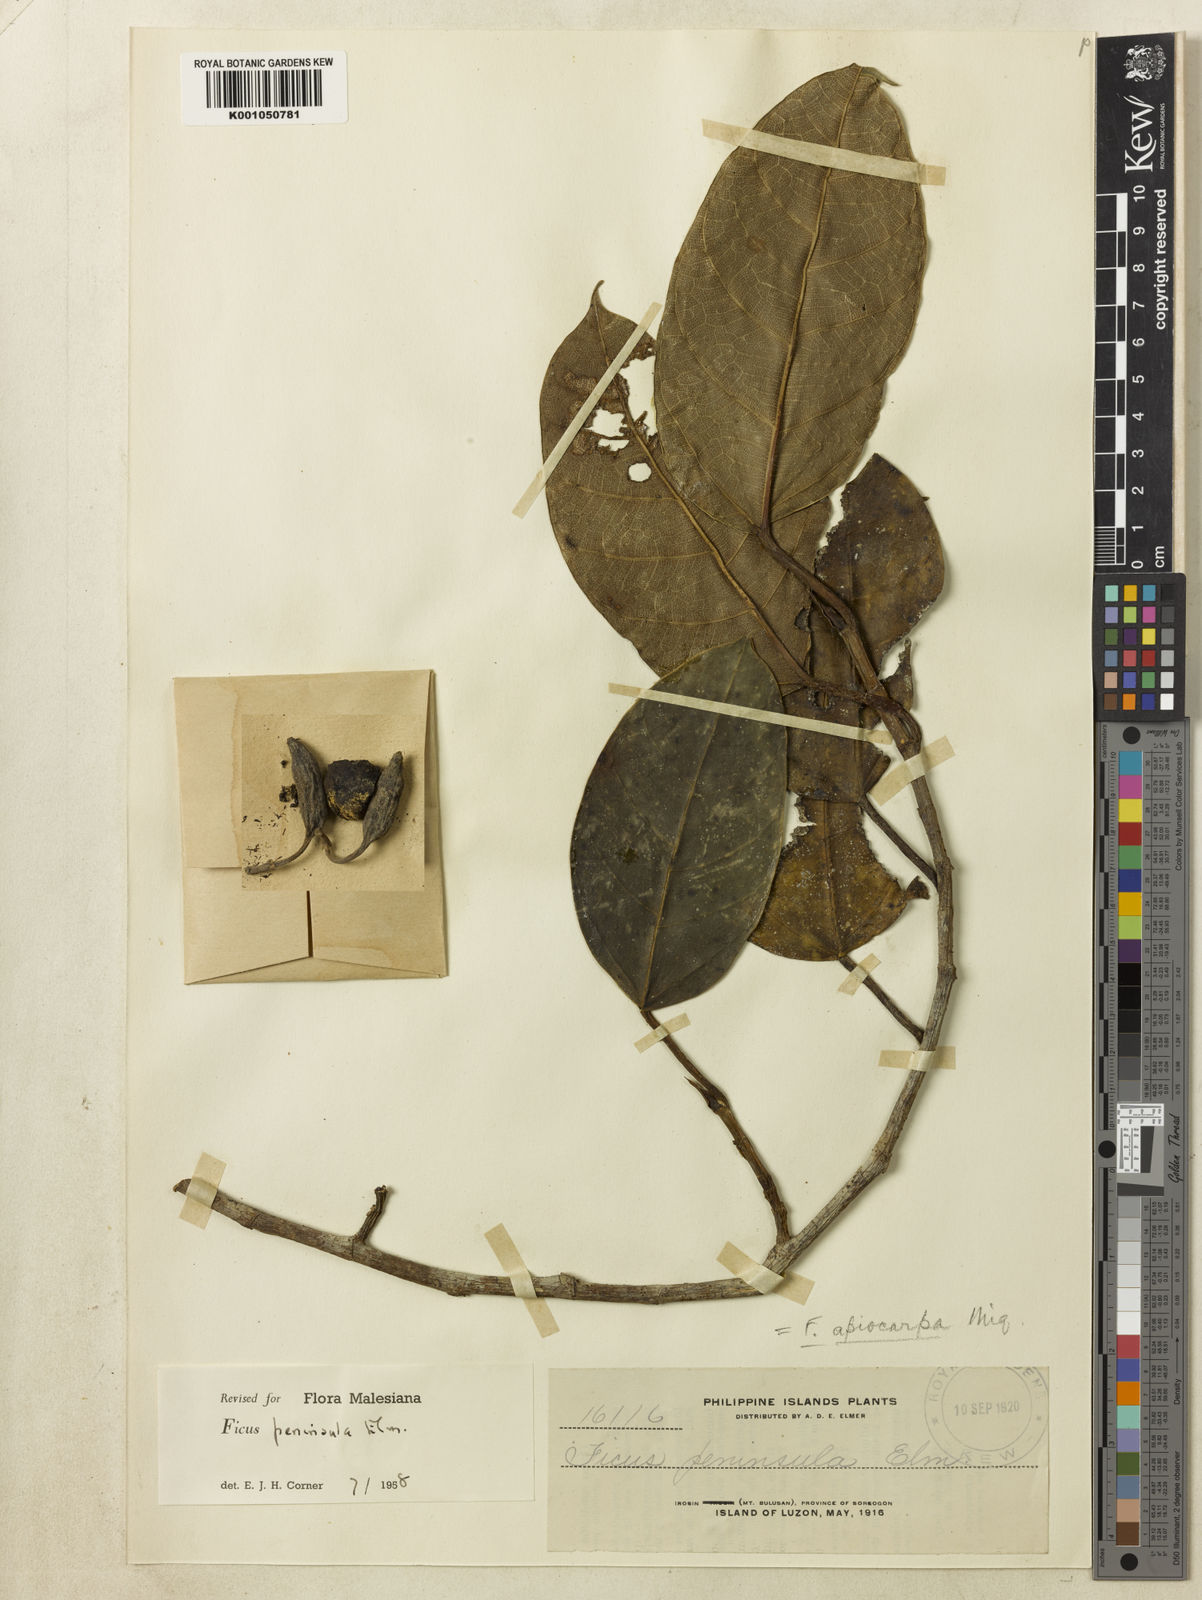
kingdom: Plantae
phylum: Tracheophyta
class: Magnoliopsida
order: Rosales
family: Moraceae
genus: Ficus
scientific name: Ficus
